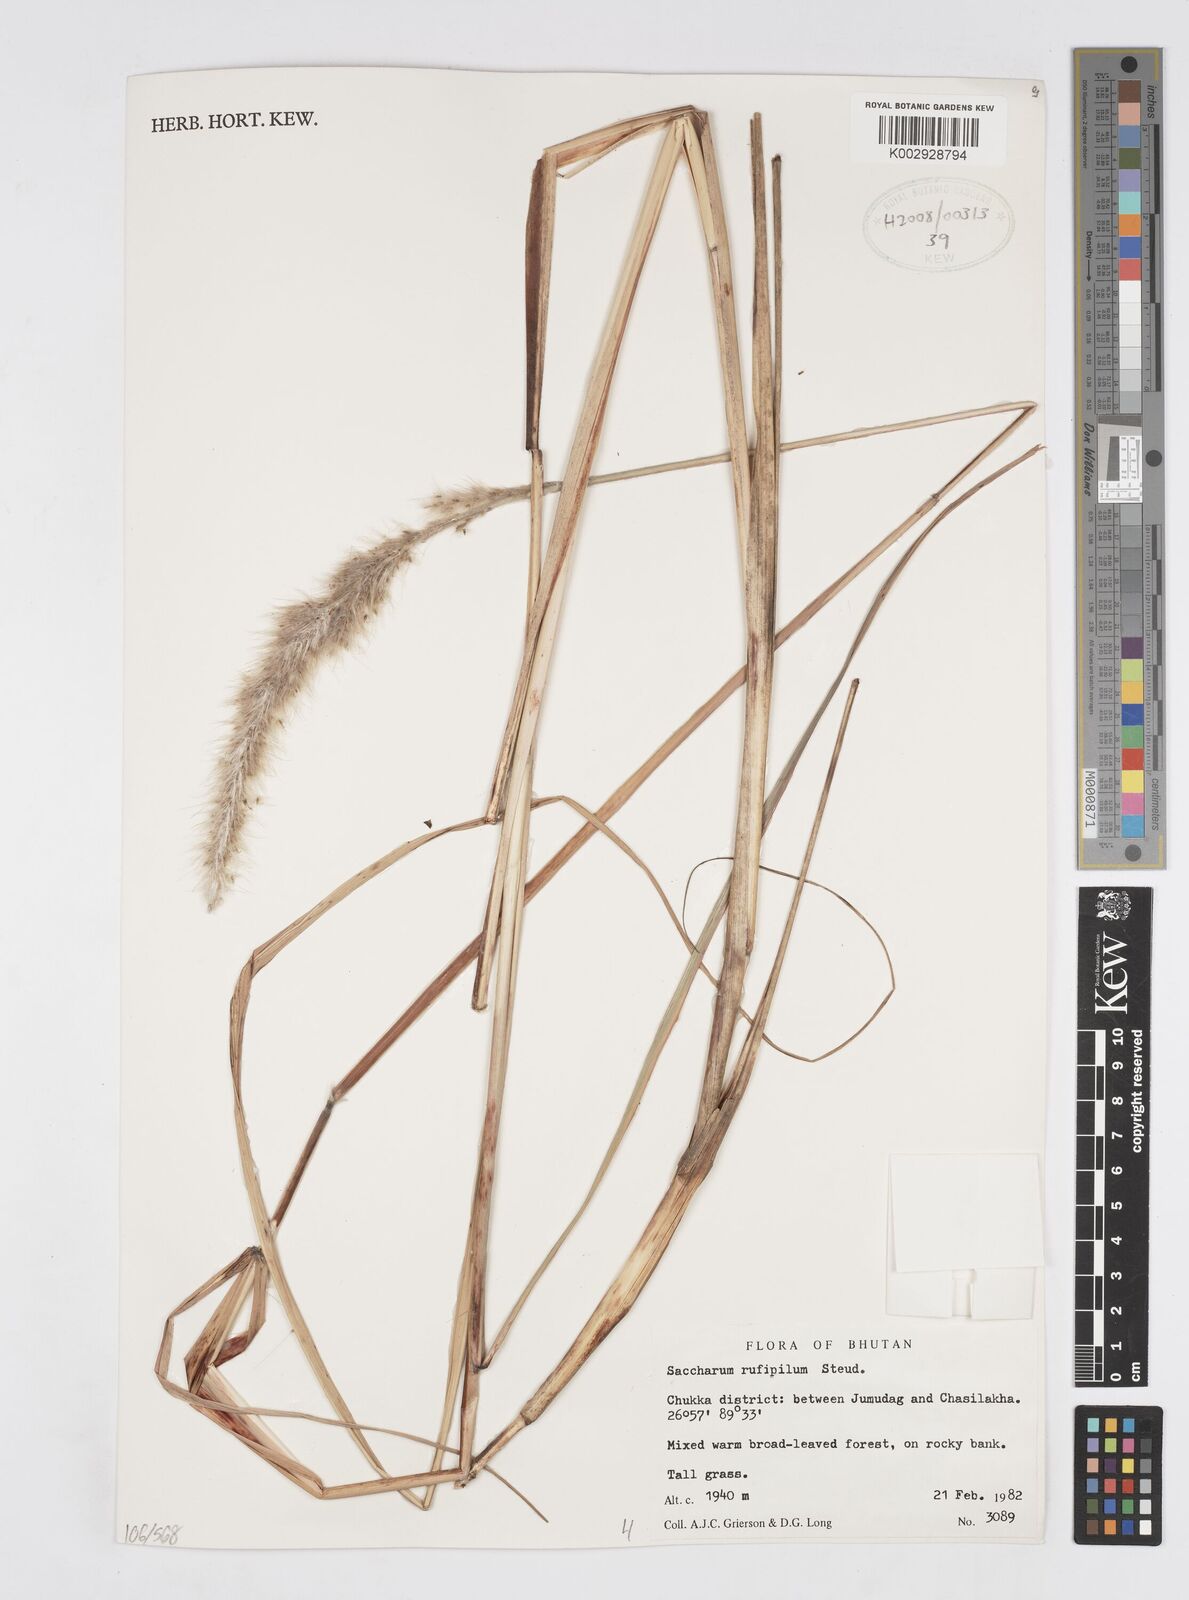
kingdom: Plantae
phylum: Tracheophyta
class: Liliopsida
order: Poales
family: Poaceae
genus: Tripidium
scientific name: Tripidium rufipilum
